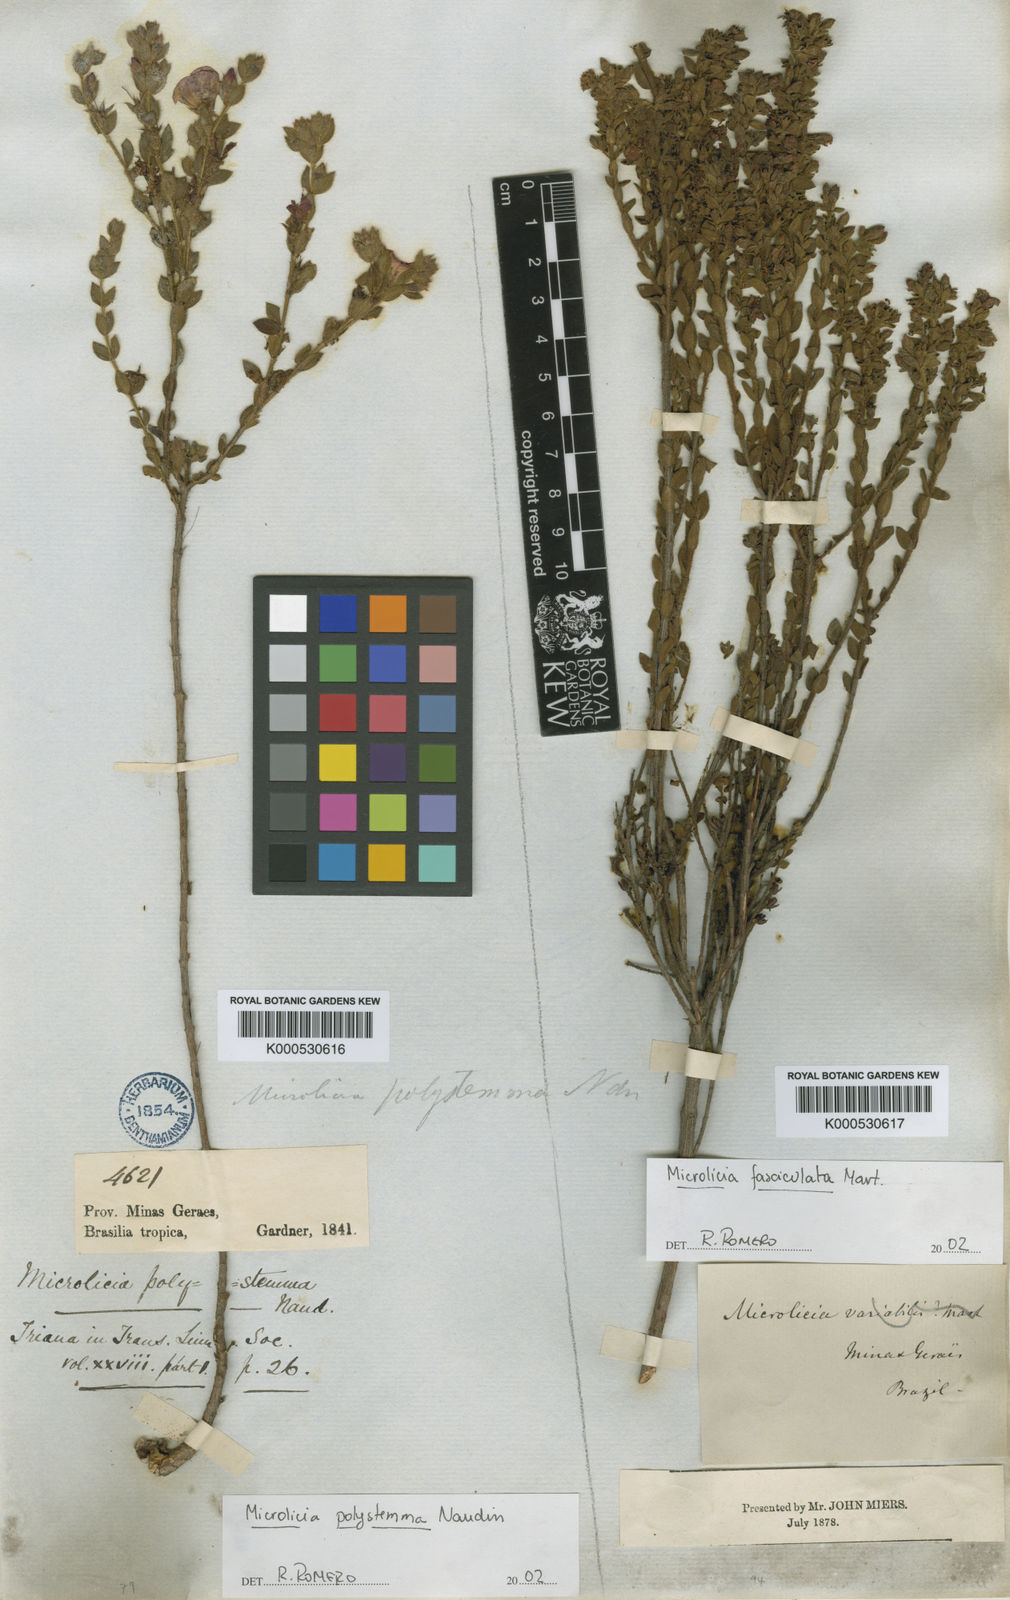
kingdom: Plantae
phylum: Tracheophyta
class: Magnoliopsida
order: Myrtales
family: Melastomataceae
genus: Microlicia
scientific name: Microlicia
